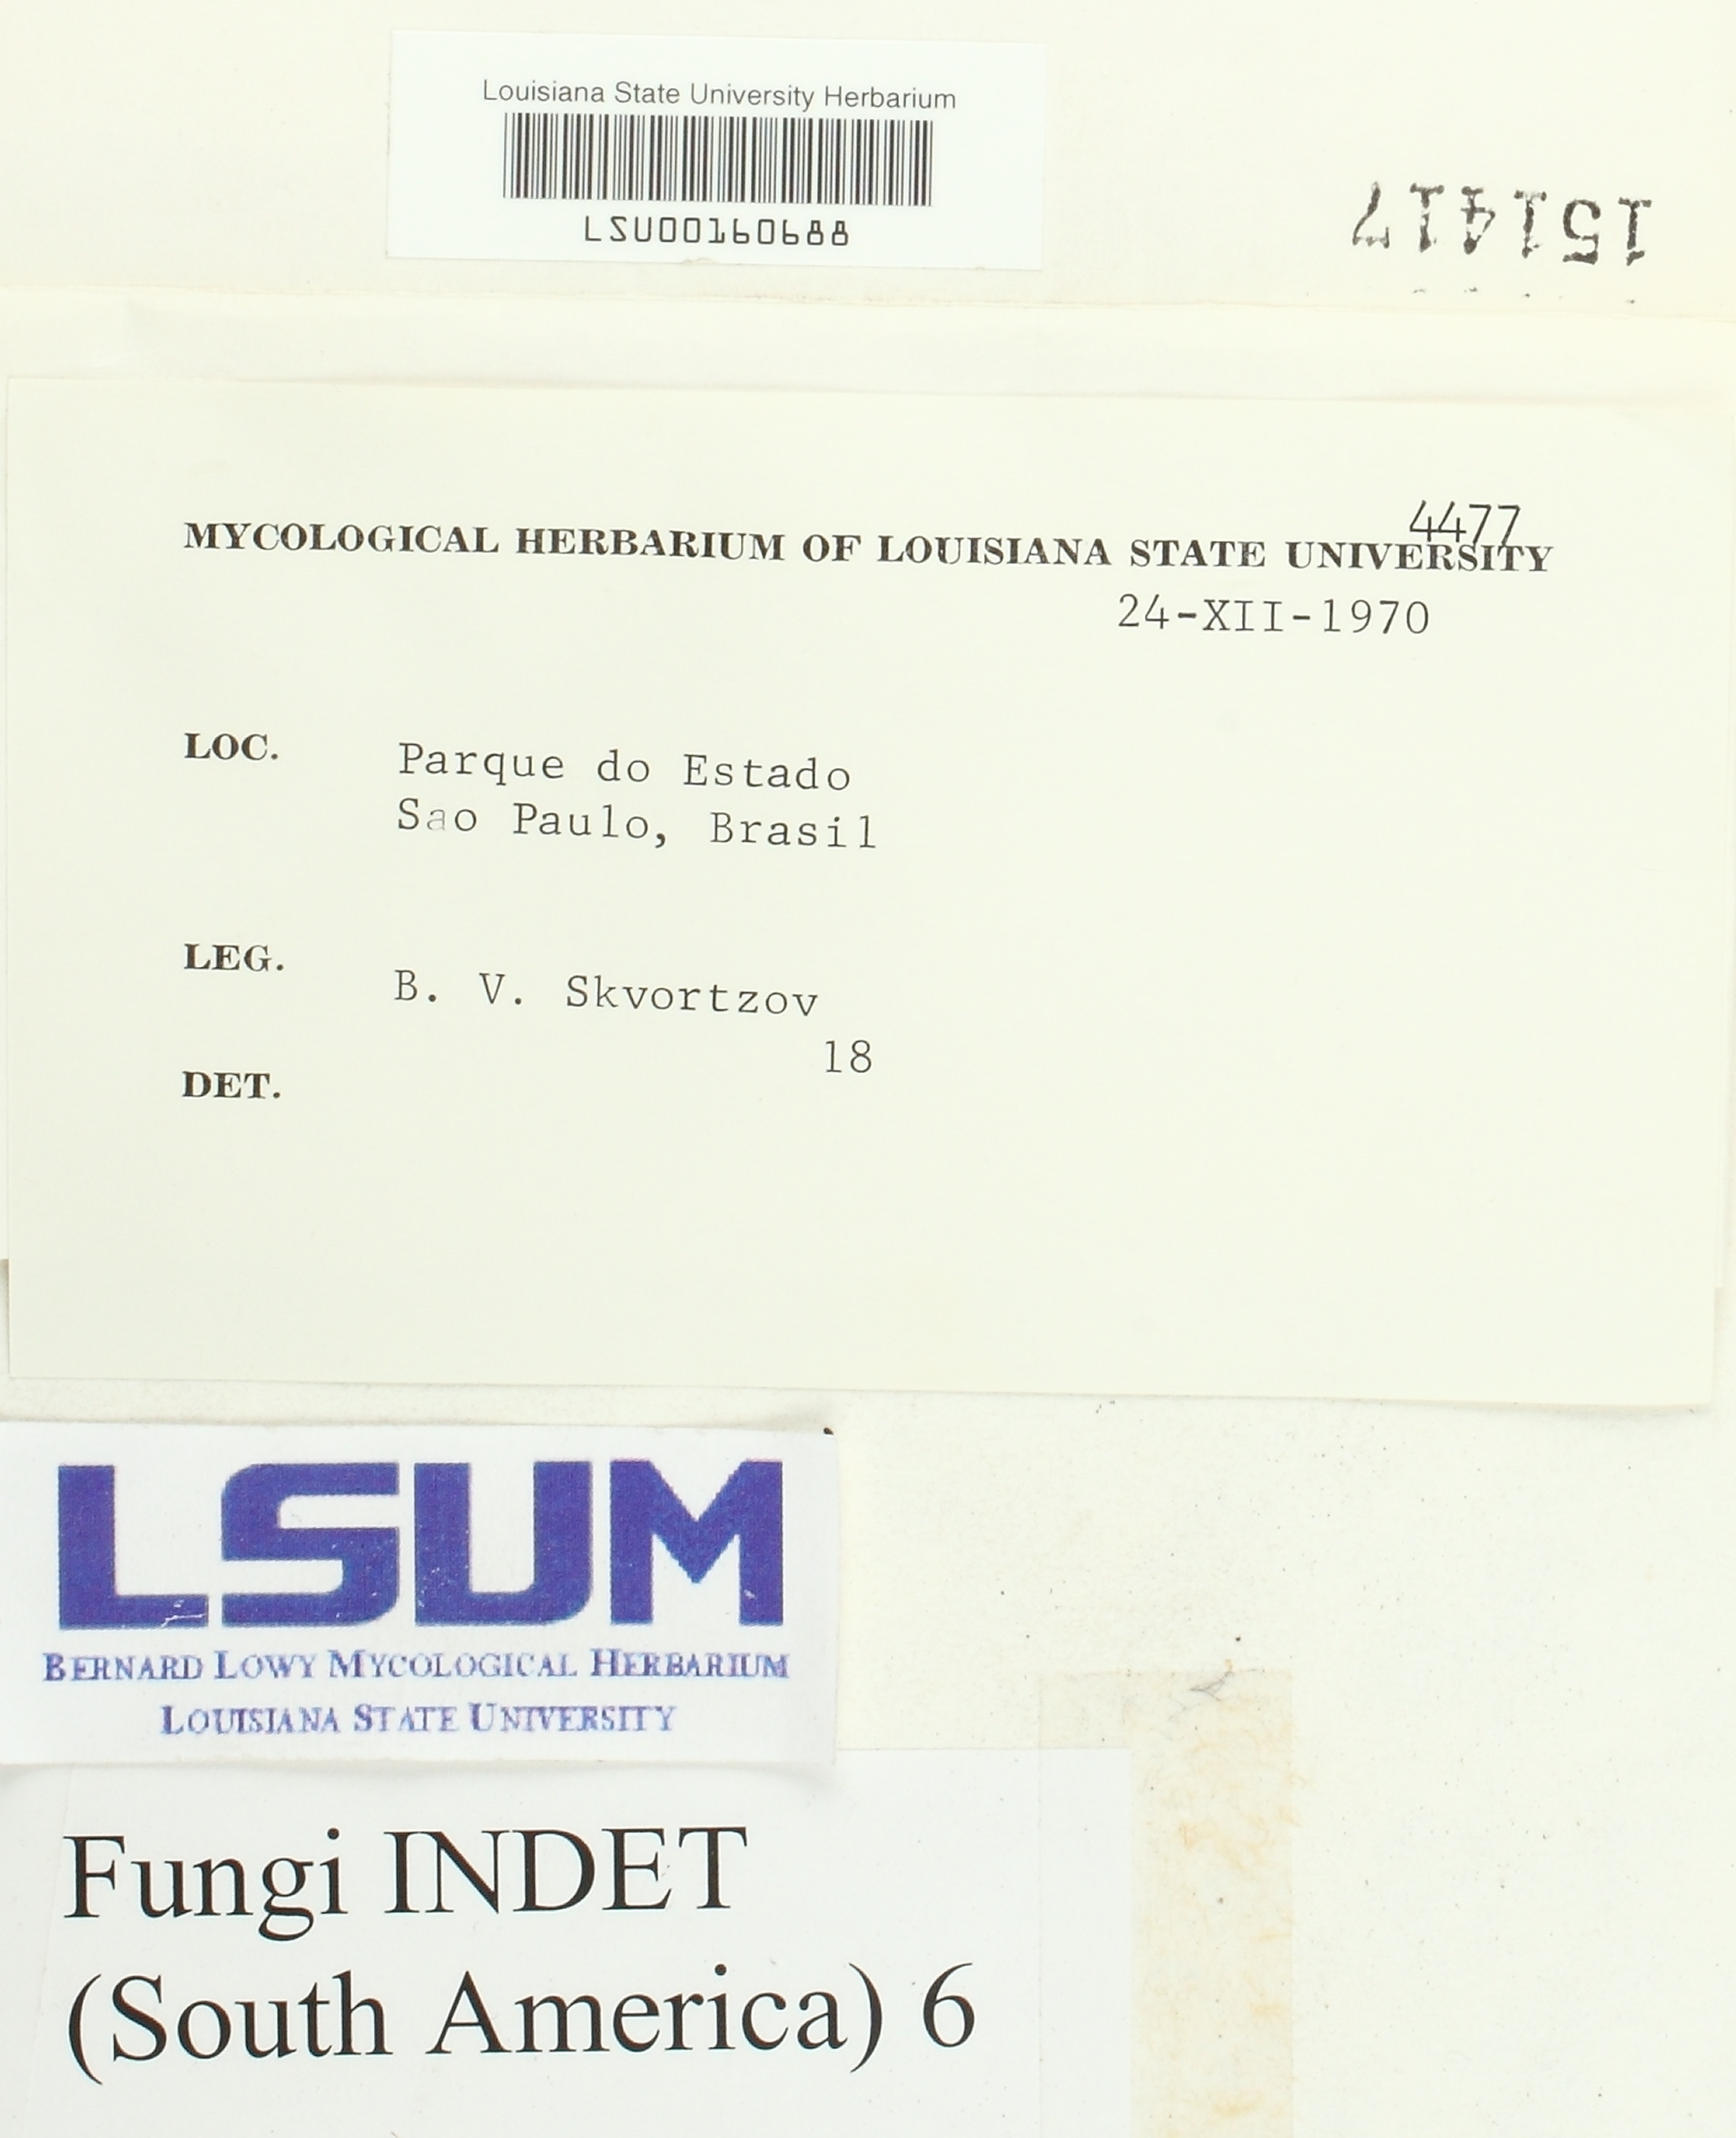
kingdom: Fungi
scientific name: Fungi
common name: Fungi
